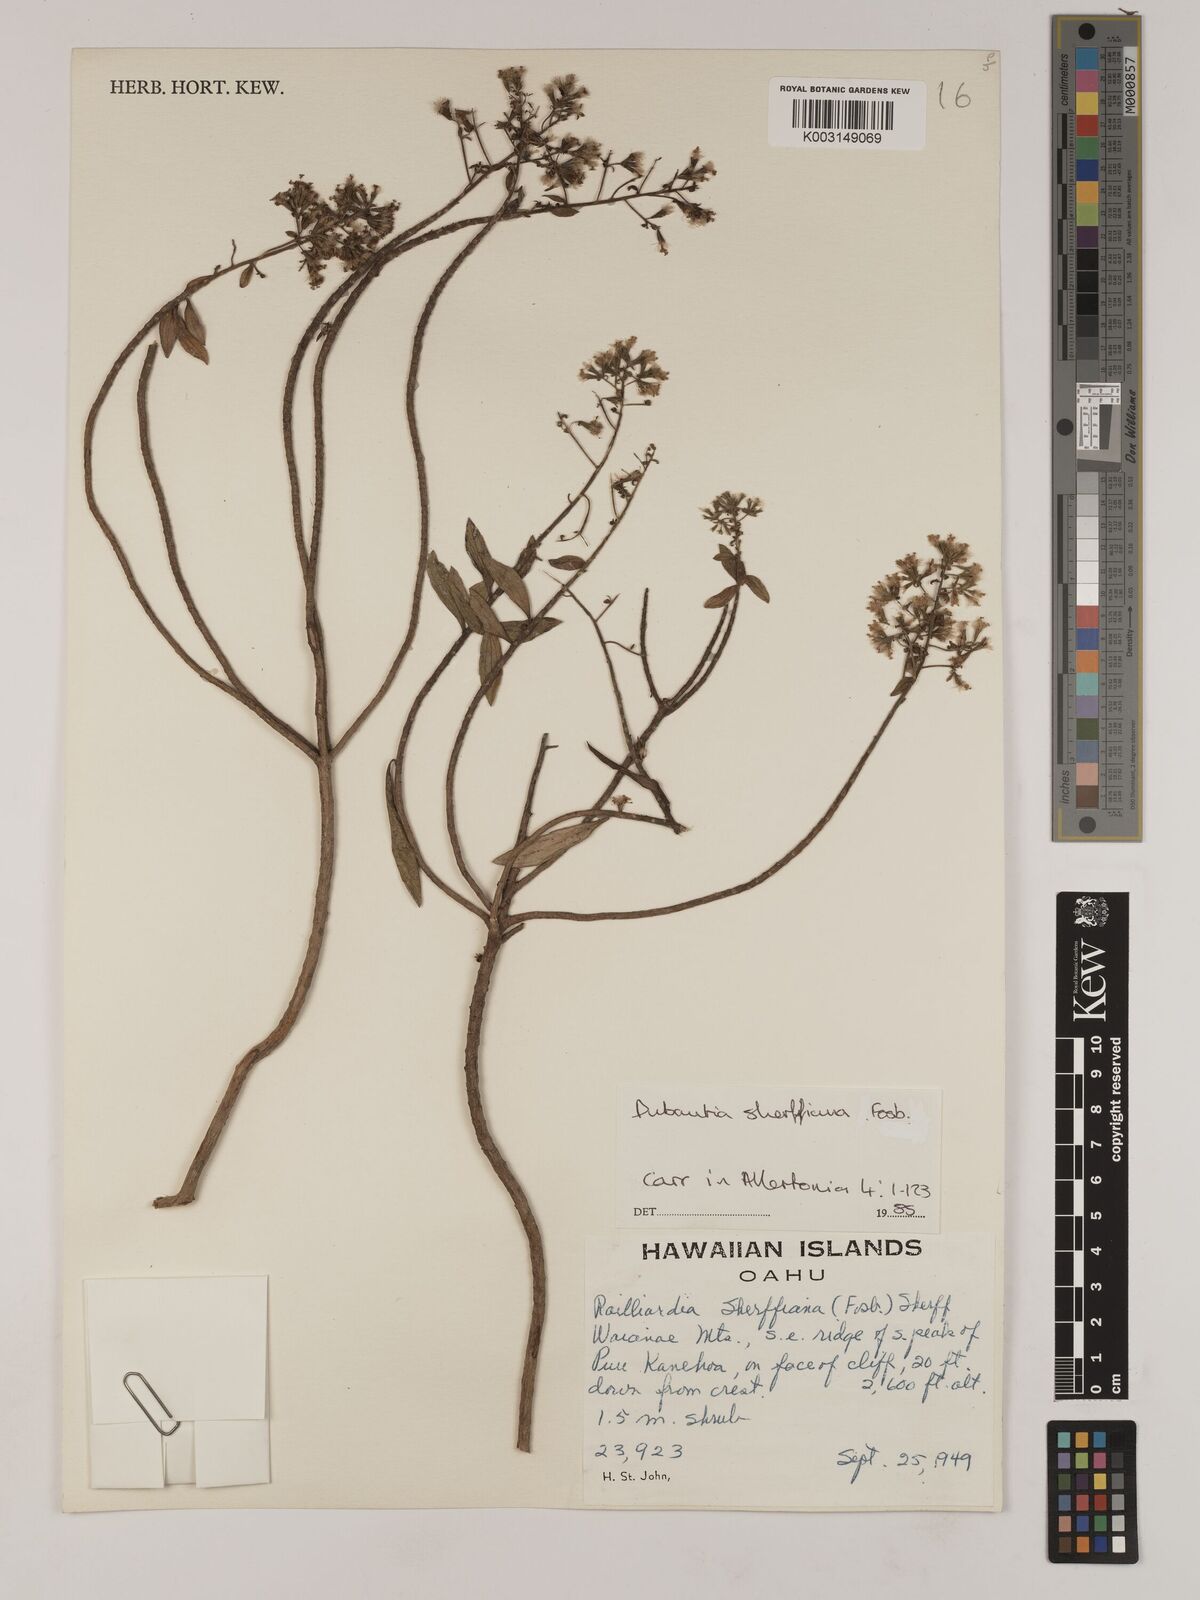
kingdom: Plantae
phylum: Tracheophyta
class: Magnoliopsida
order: Asterales
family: Asteraceae
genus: Dubautia
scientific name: Dubautia sherffiana
